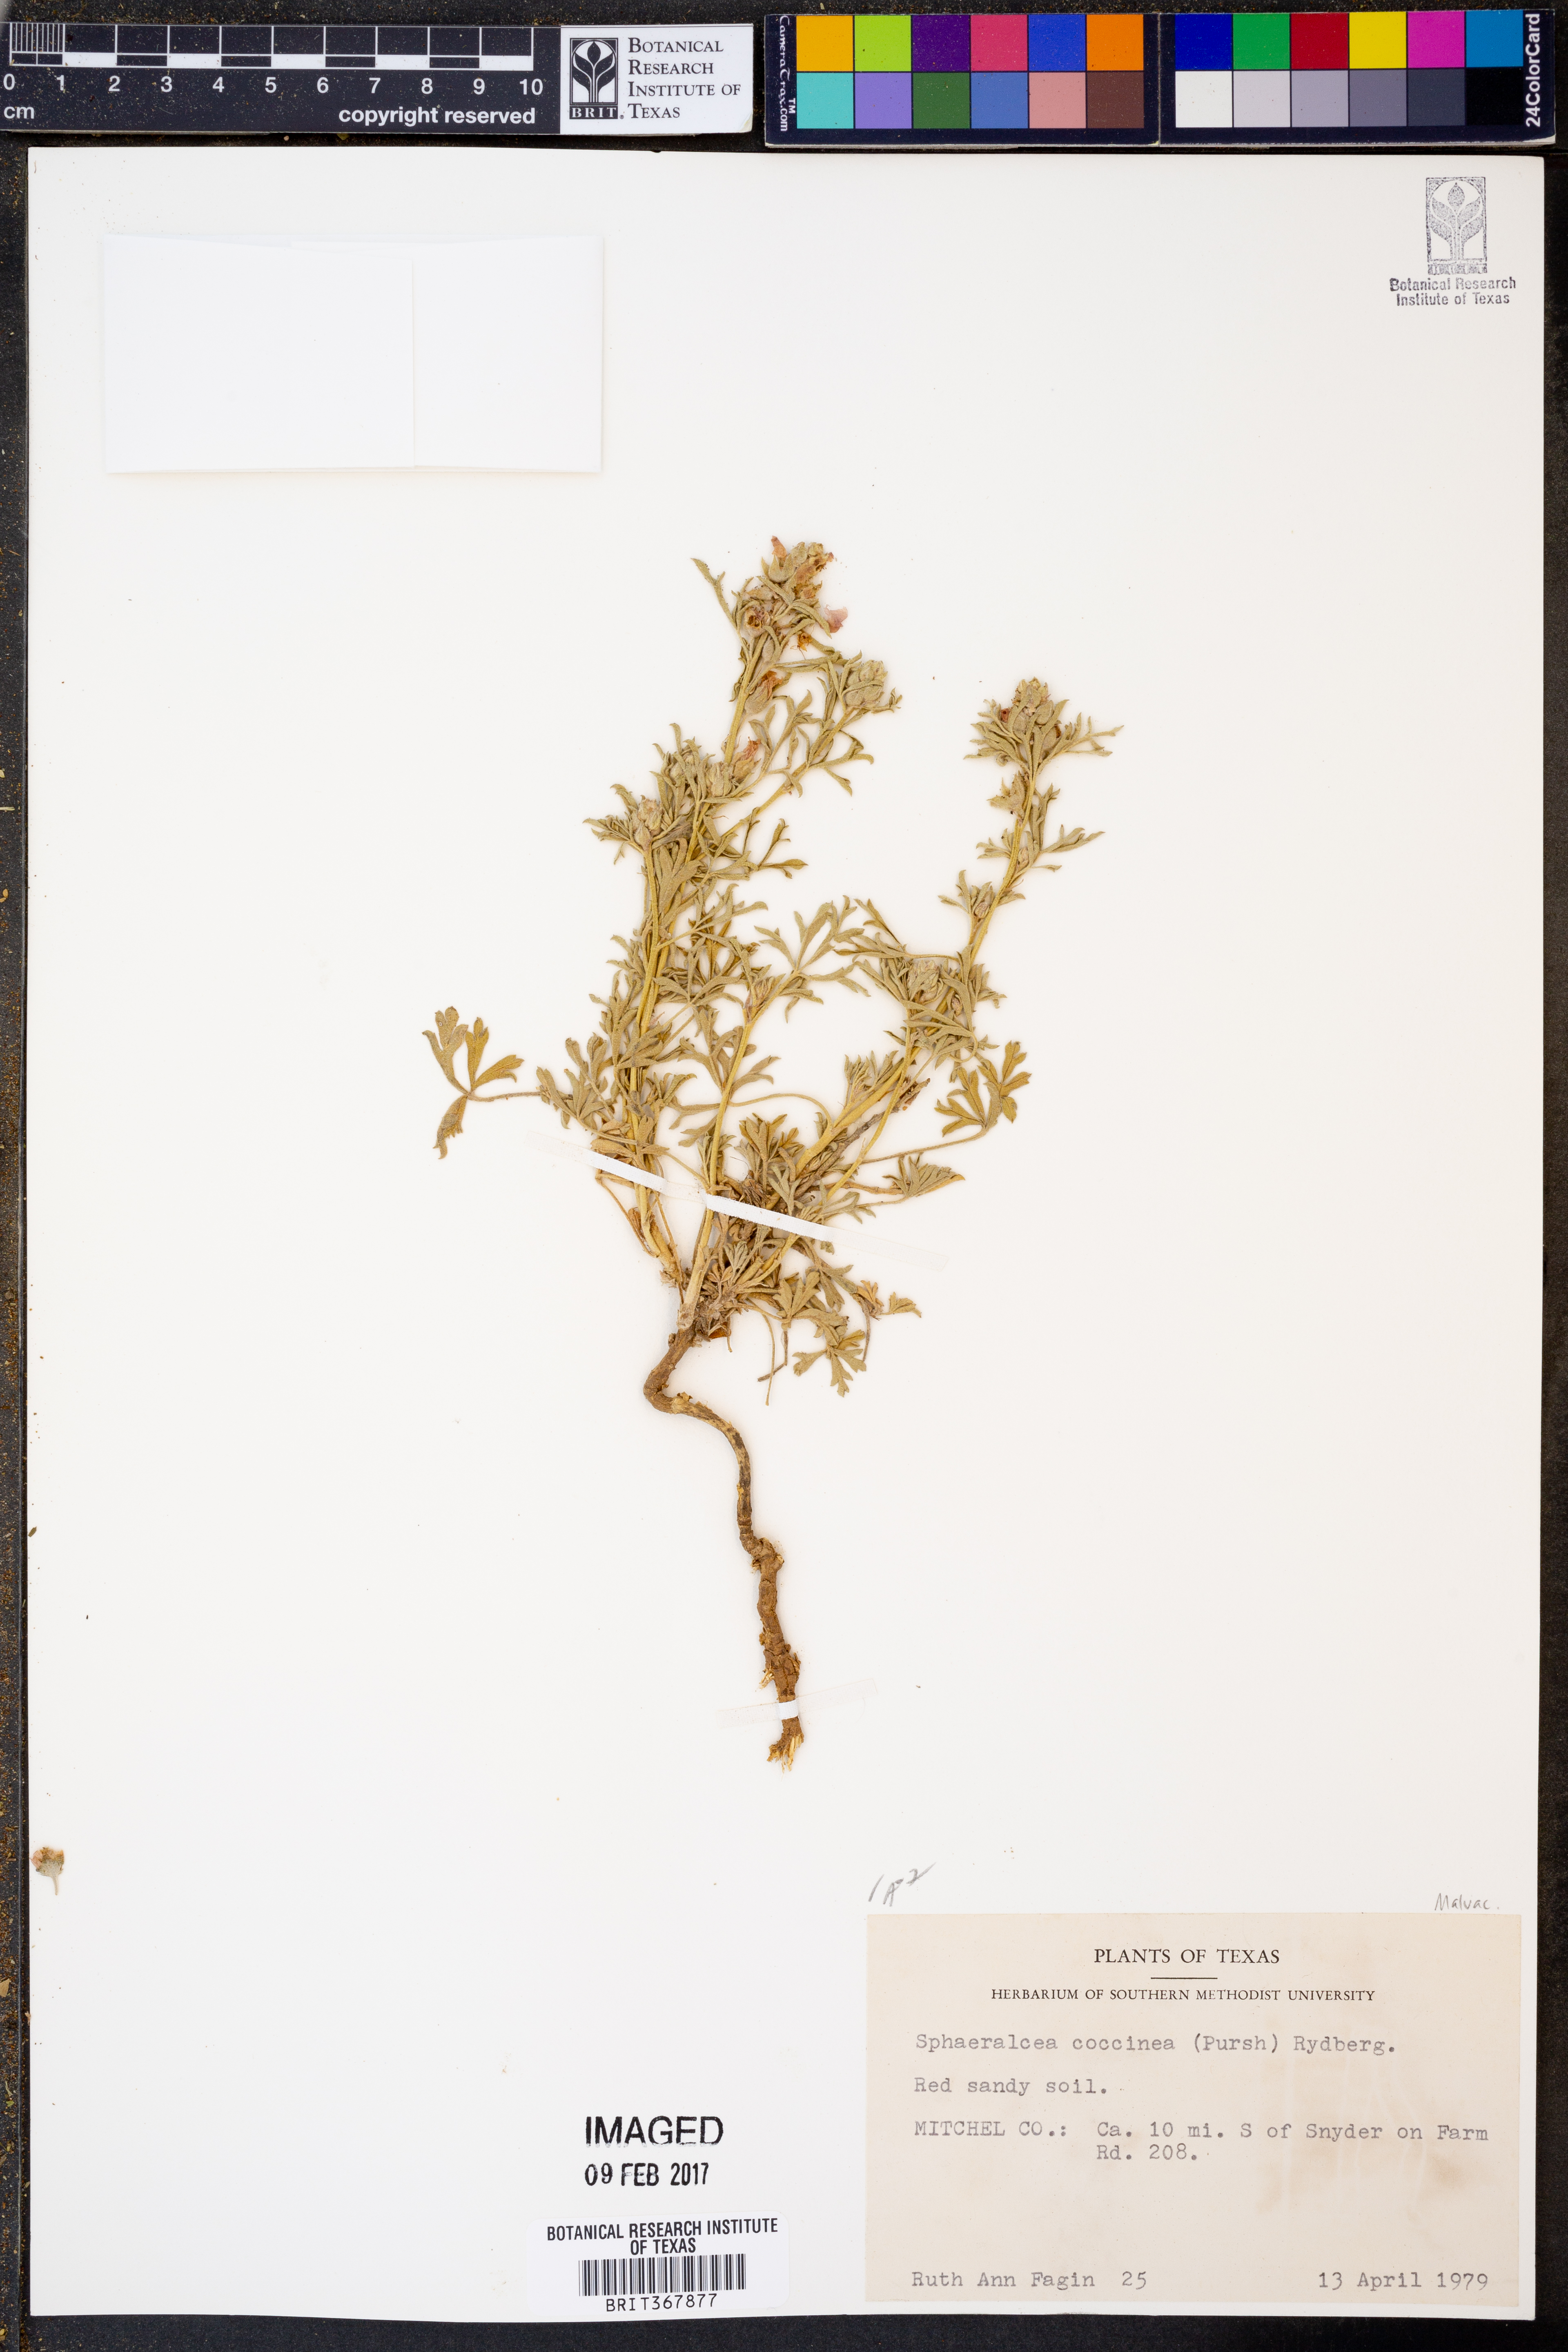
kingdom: Plantae
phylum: Tracheophyta
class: Magnoliopsida
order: Malvales
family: Malvaceae
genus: Sphaeralcea
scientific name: Sphaeralcea coccinea
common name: Moss-rose
